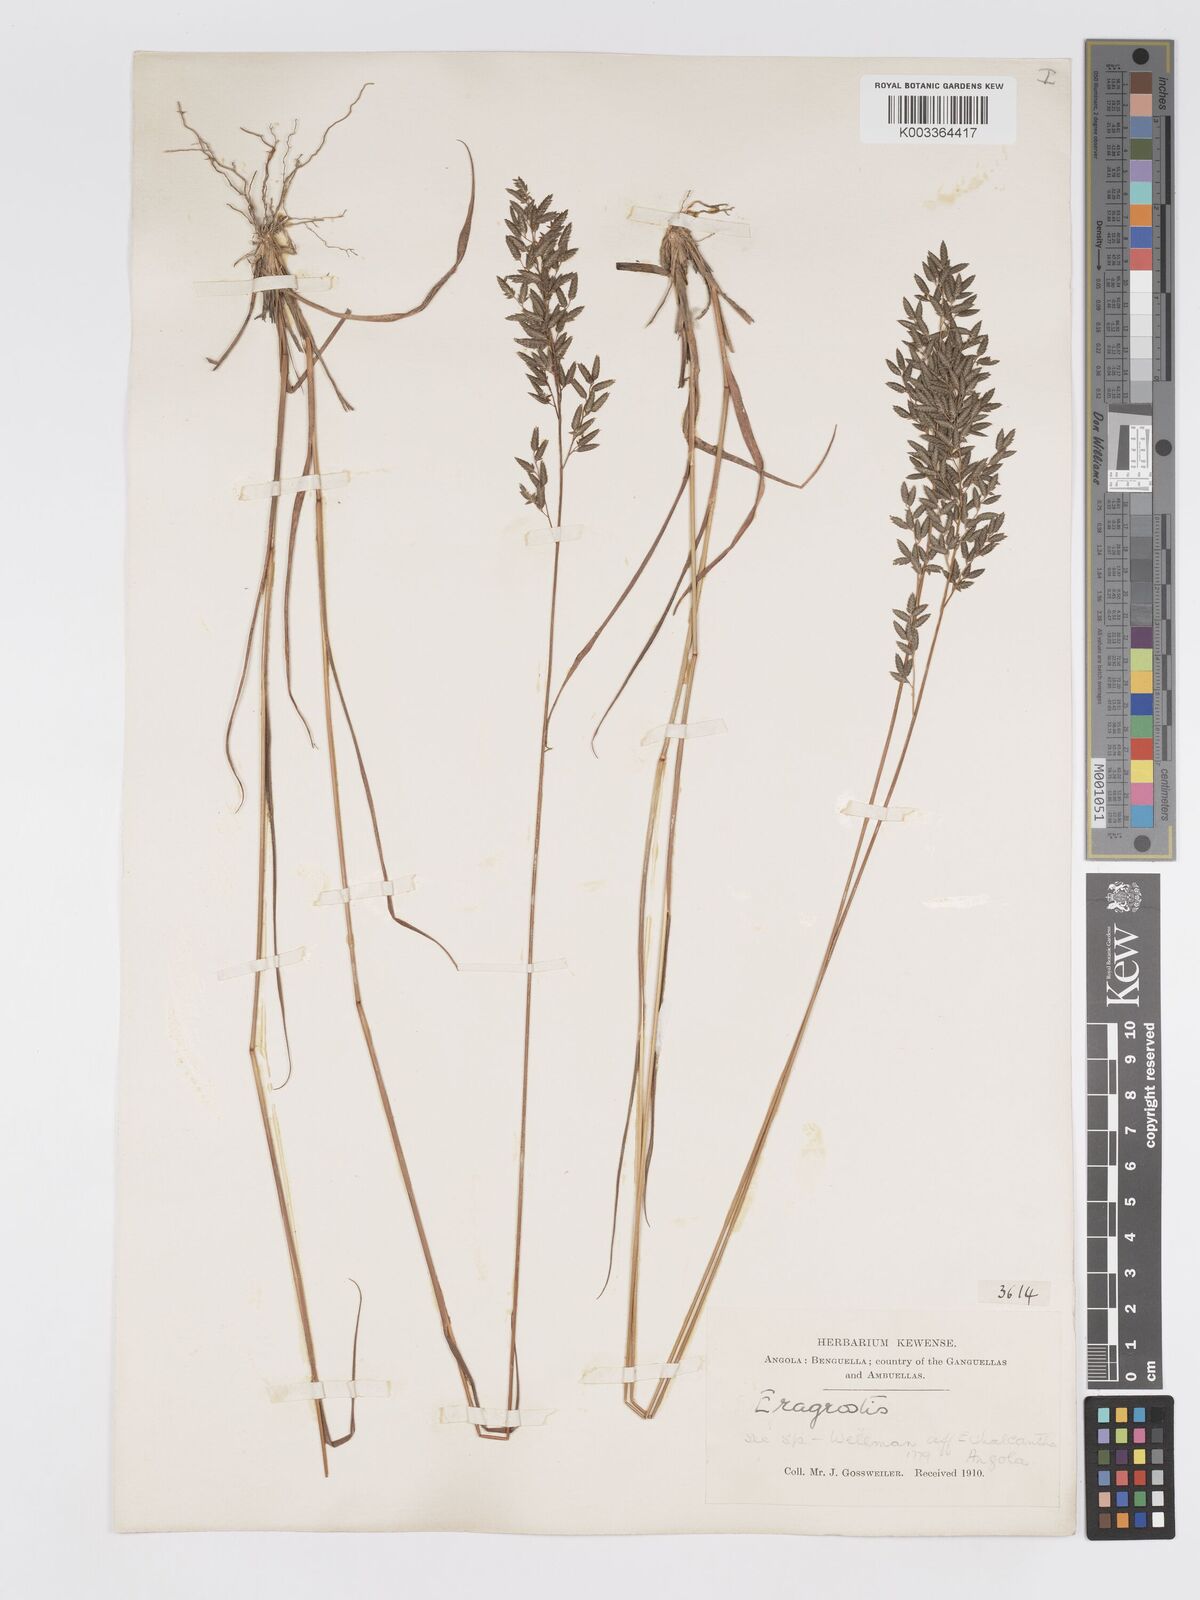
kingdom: Plantae
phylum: Tracheophyta
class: Liliopsida
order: Poales
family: Poaceae
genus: Eragrostis
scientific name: Eragrostis racemosa
